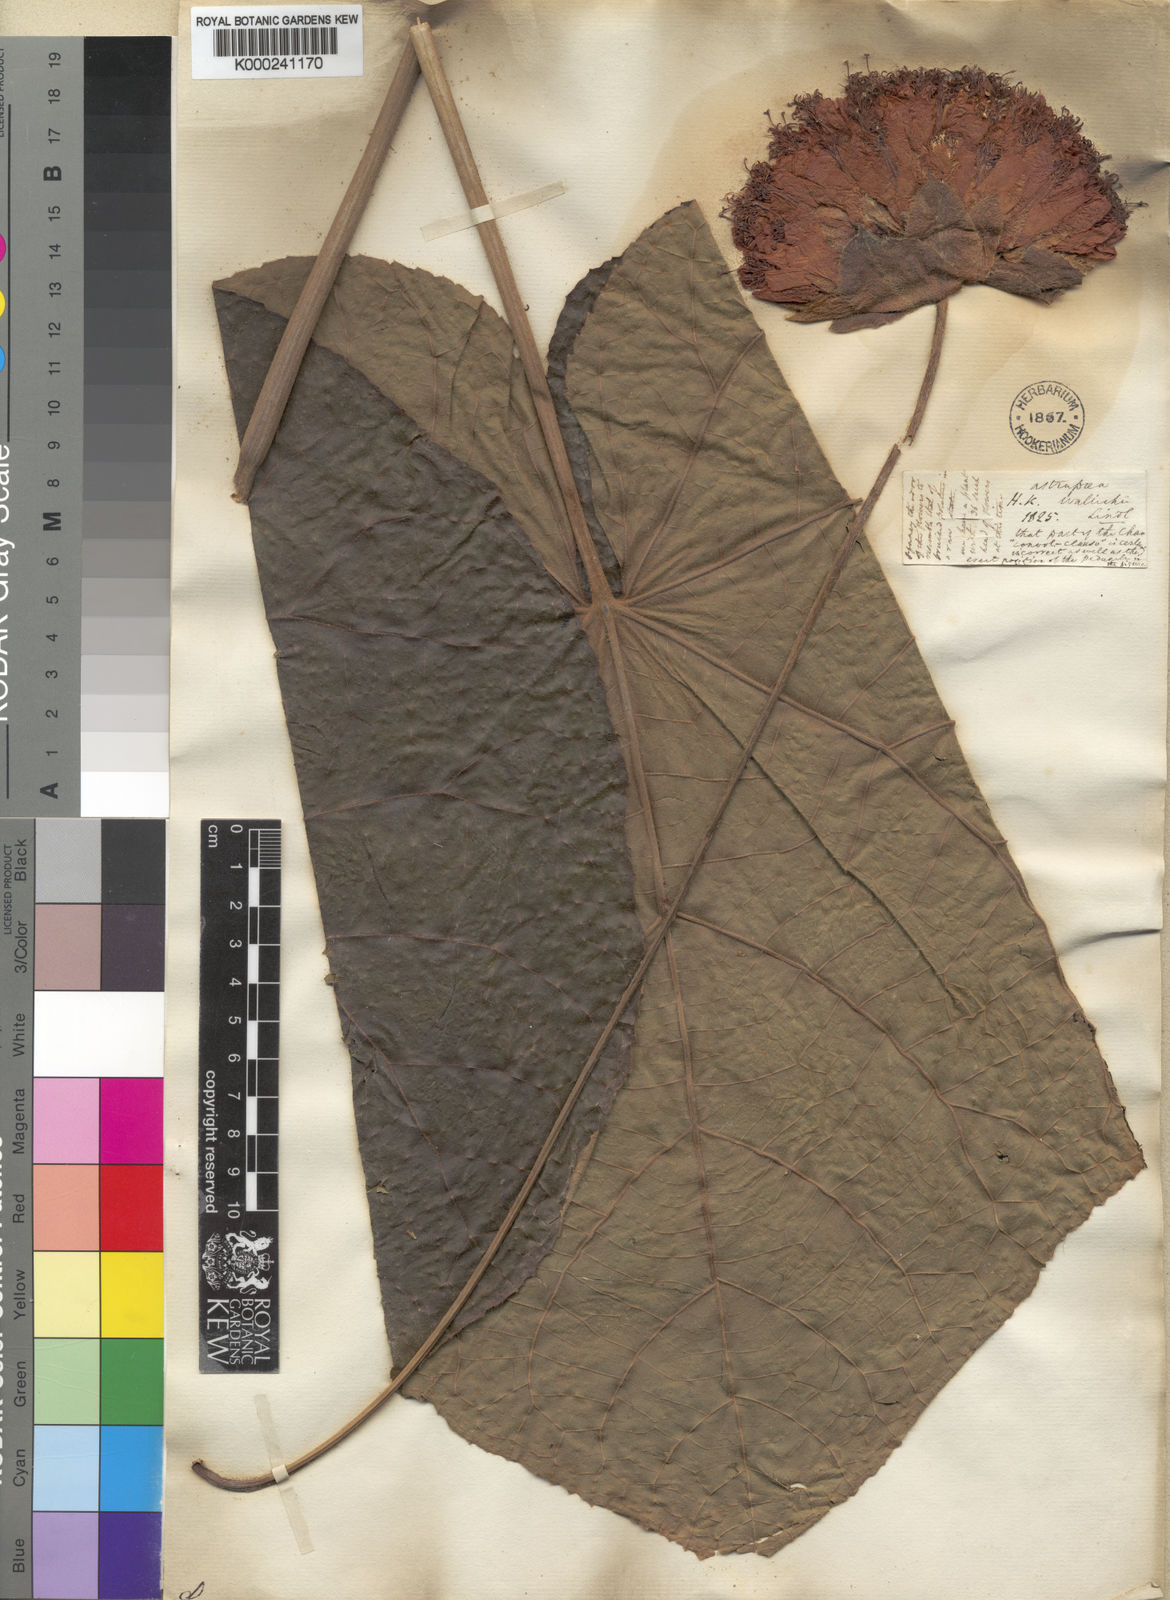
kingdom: Plantae
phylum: Tracheophyta
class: Magnoliopsida
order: Malvales
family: Malvaceae
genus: Dombeya
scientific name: Dombeya wallichii
